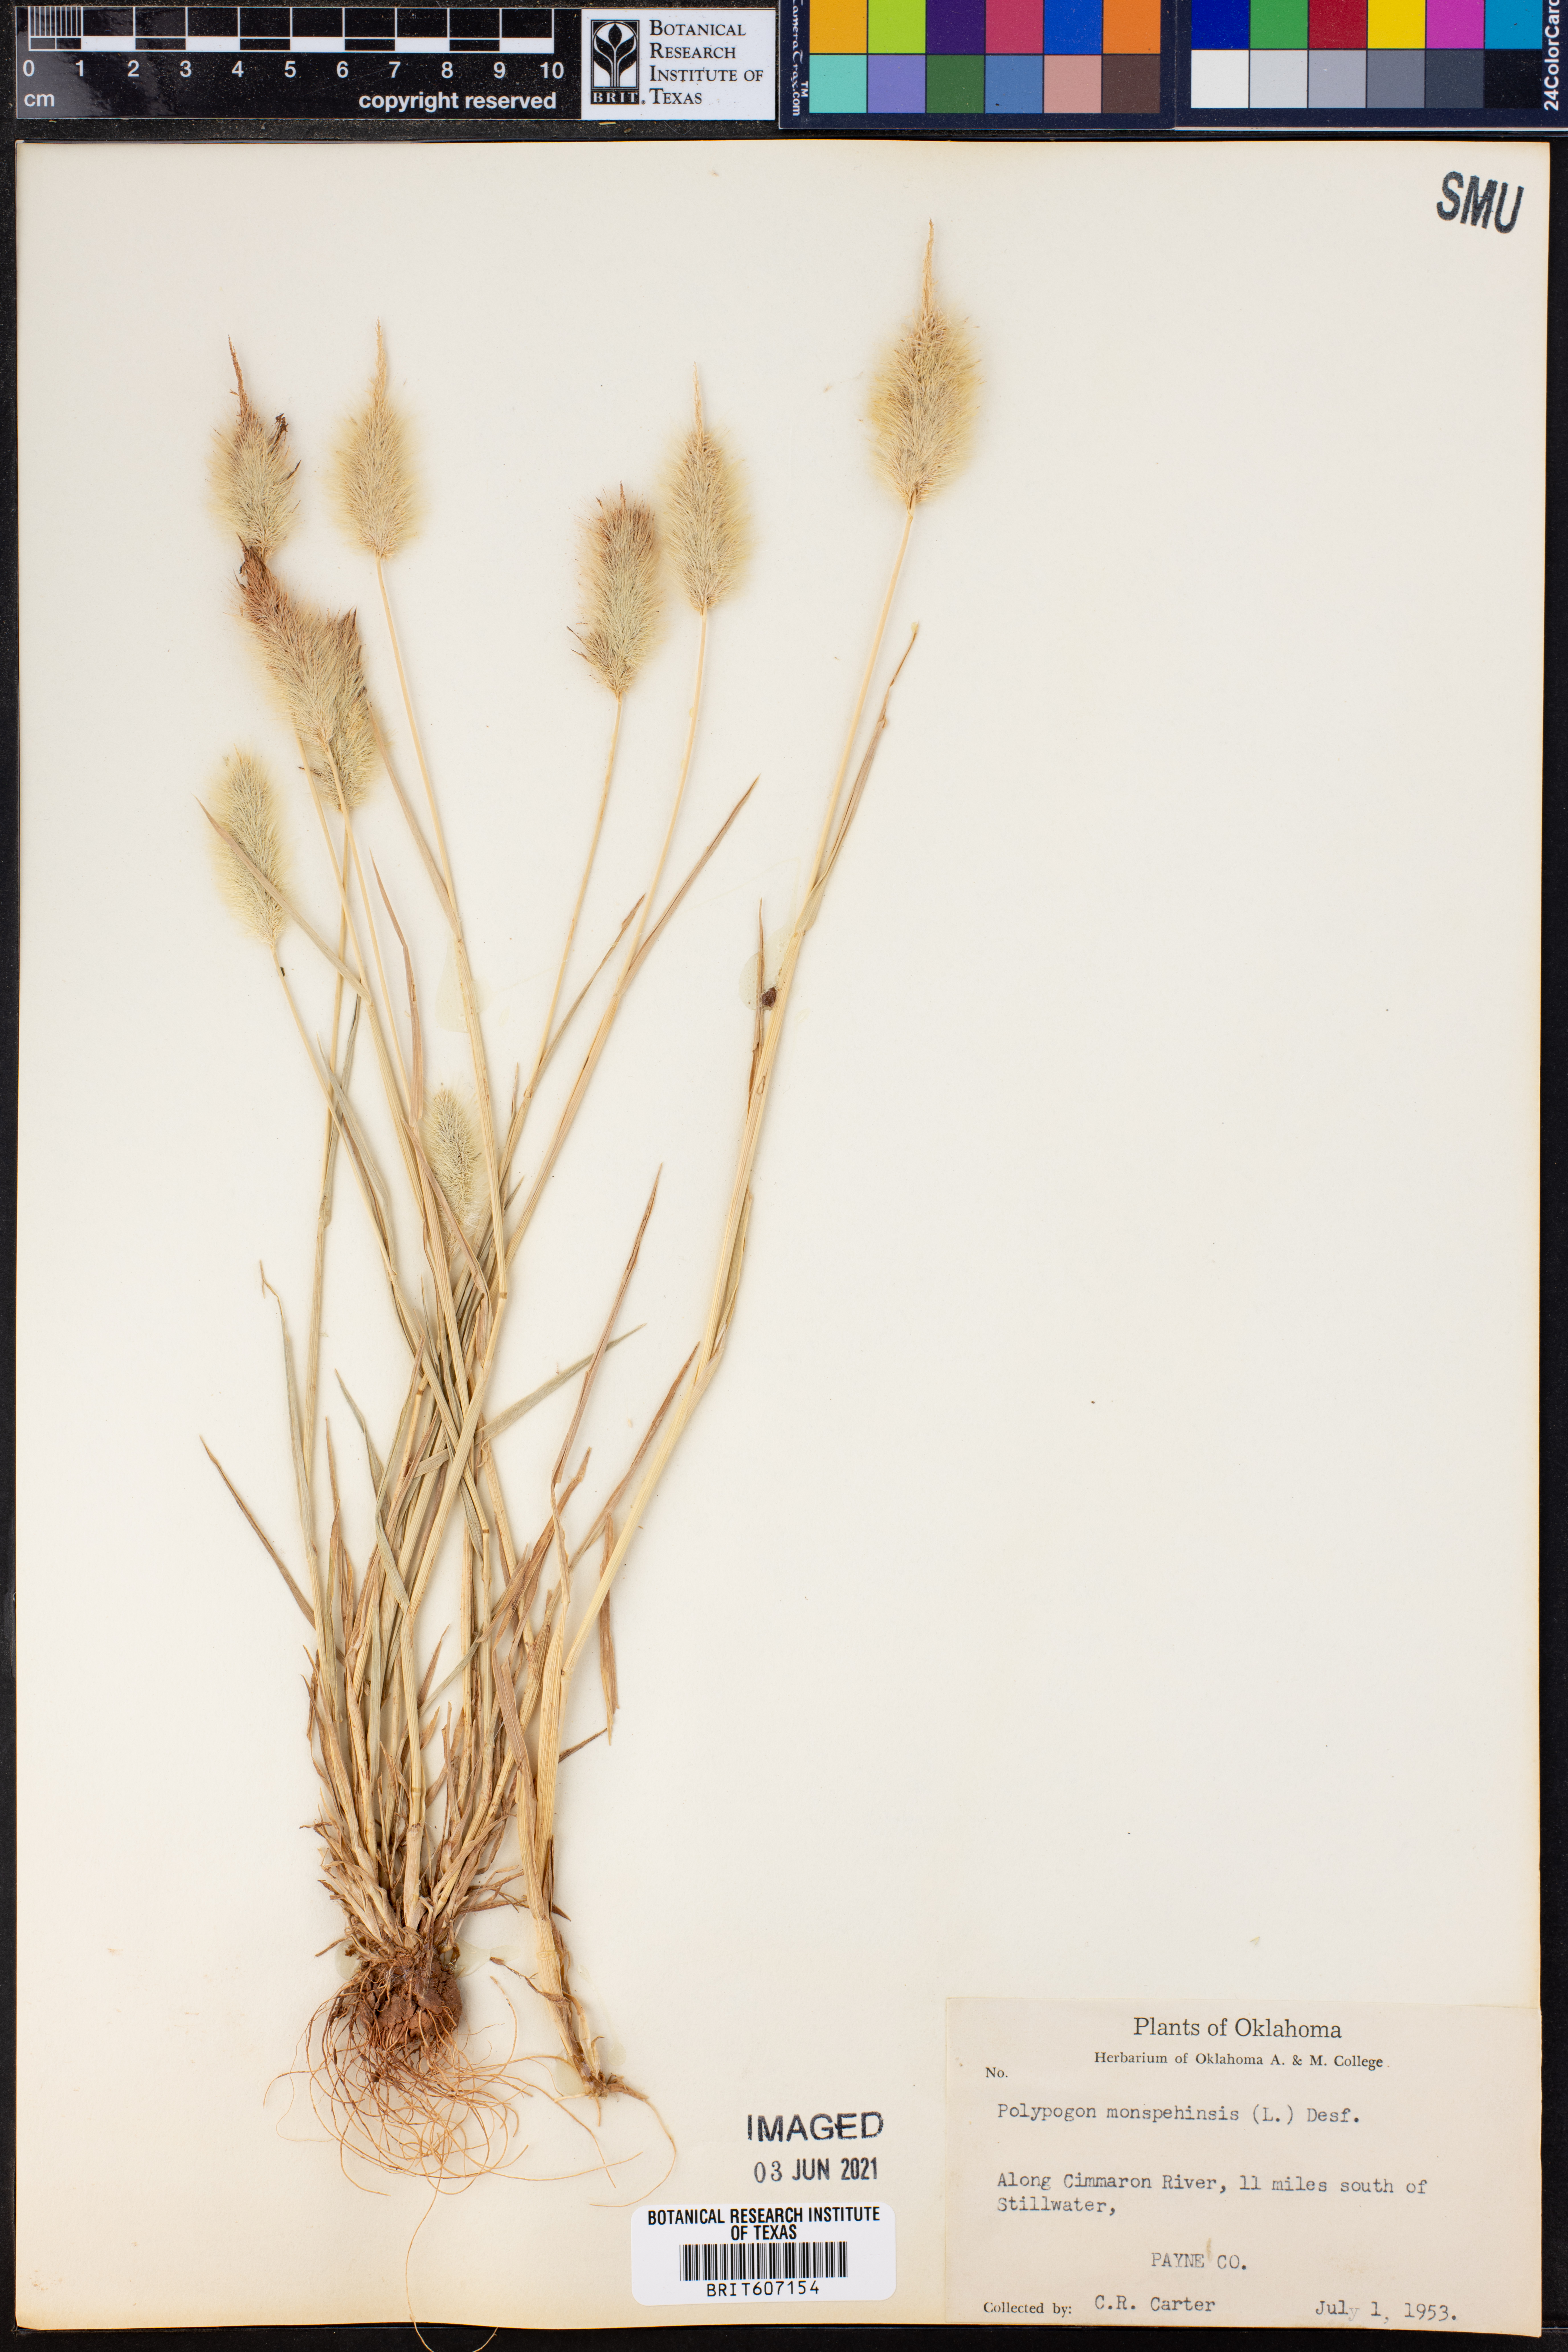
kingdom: Plantae
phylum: Tracheophyta
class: Liliopsida
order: Poales
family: Poaceae
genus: Polypogon
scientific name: Polypogon monspeliensis
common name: Annual rabbitsfoot grass
